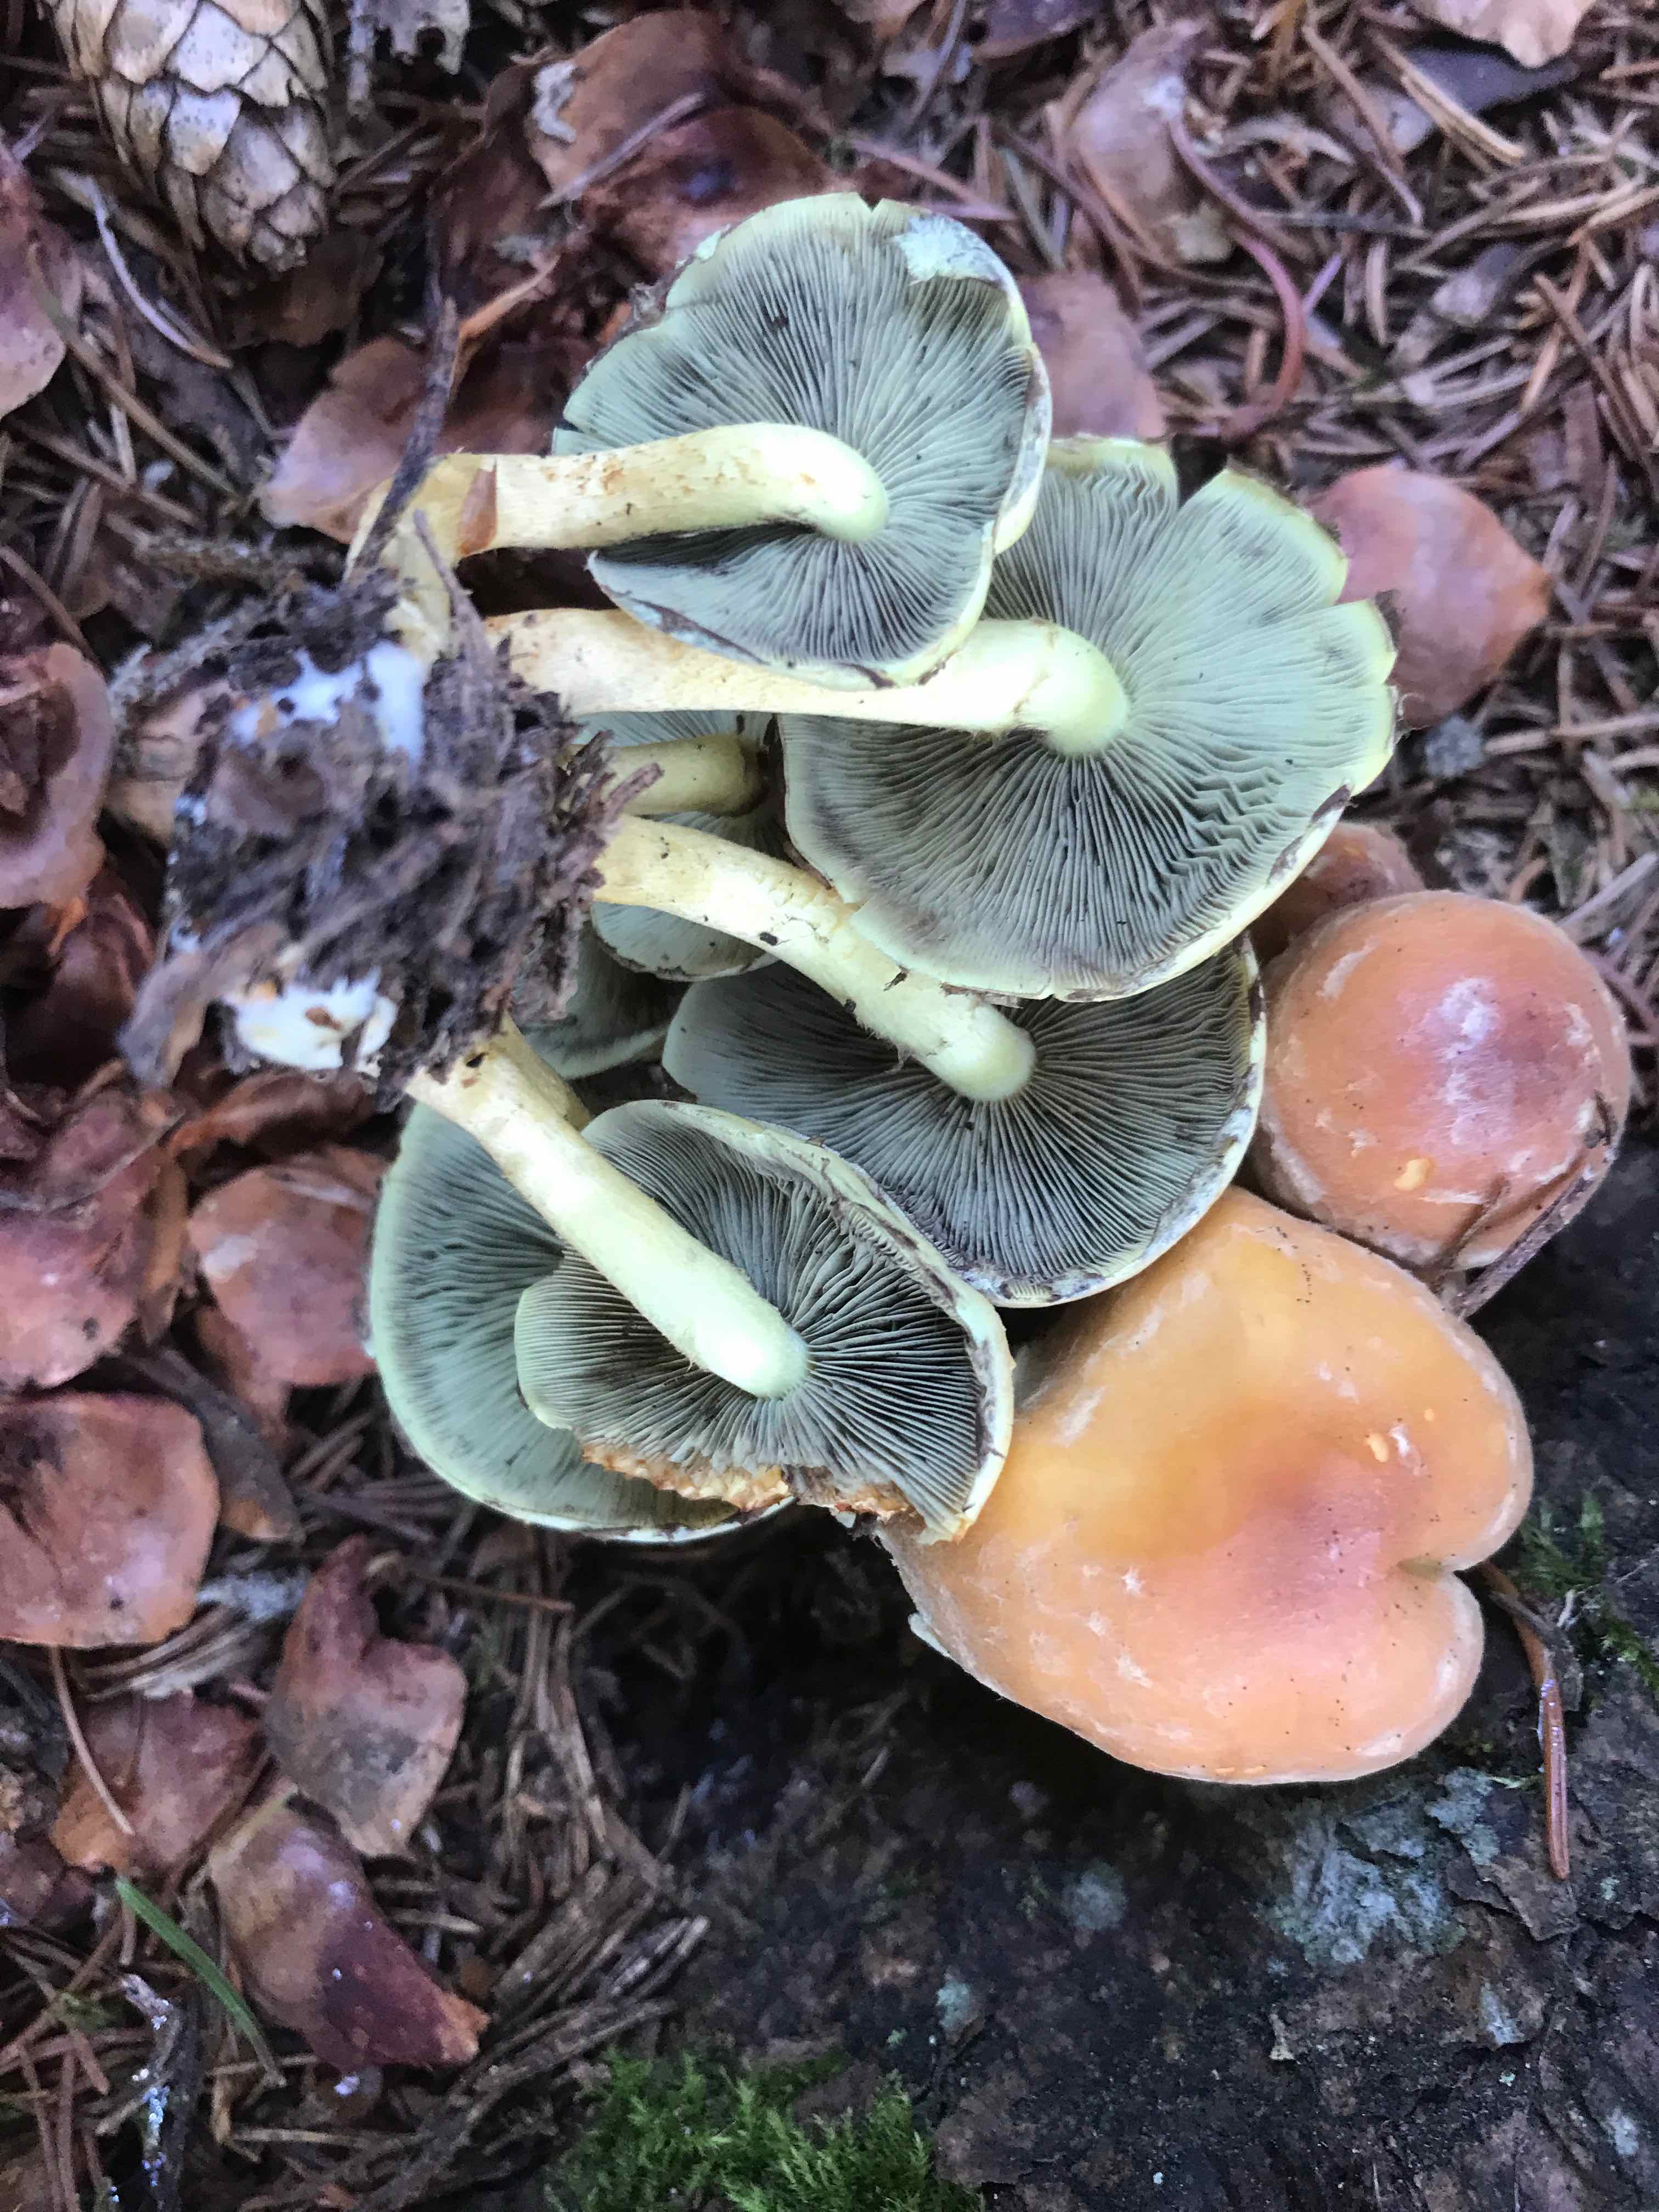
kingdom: Fungi
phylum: Basidiomycota
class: Agaricomycetes
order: Agaricales
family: Strophariaceae
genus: Hypholoma
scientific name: Hypholoma fasciculare
